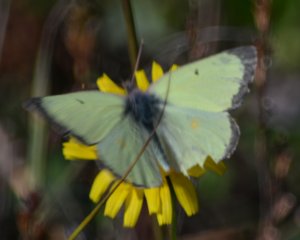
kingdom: Animalia
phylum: Arthropoda
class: Insecta
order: Lepidoptera
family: Pieridae
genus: Colias
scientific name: Colias philodice
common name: Clouded Sulphur
